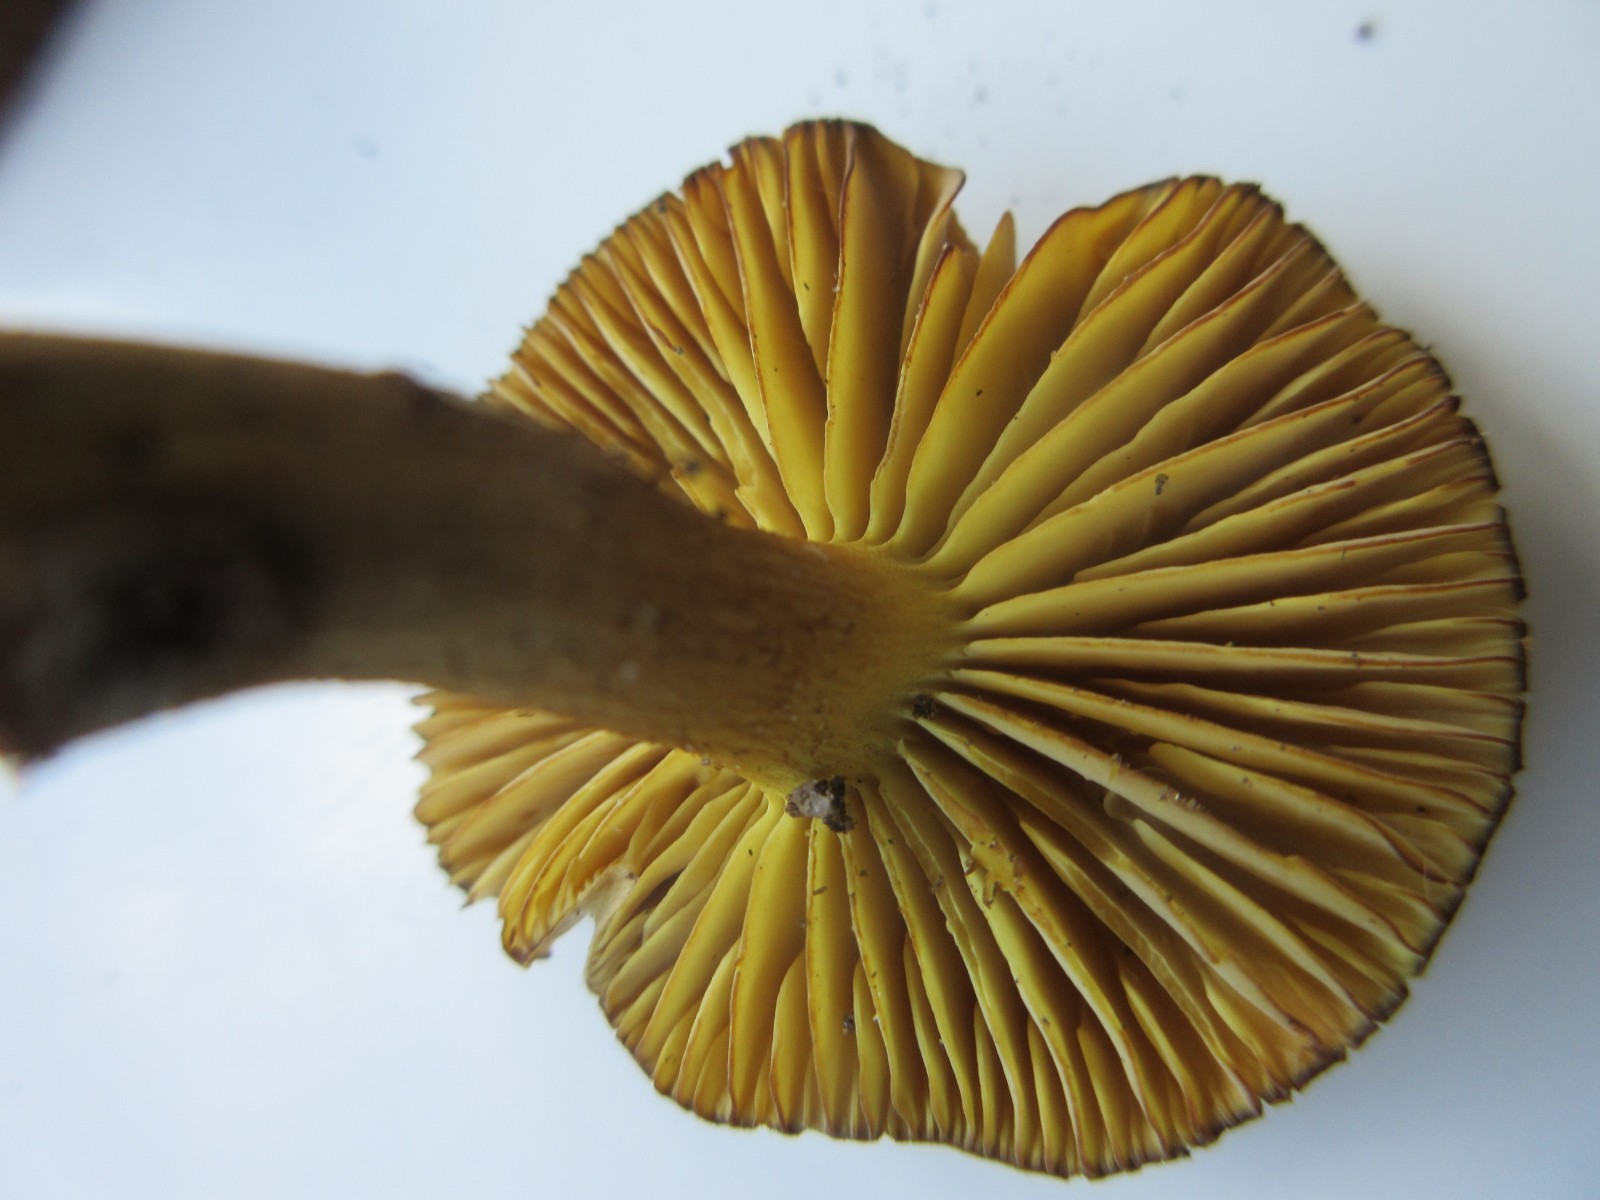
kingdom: Fungi
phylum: Basidiomycota
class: Agaricomycetes
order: Agaricales
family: Tricholomataceae
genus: Tricholoma
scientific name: Tricholoma sulphureum
